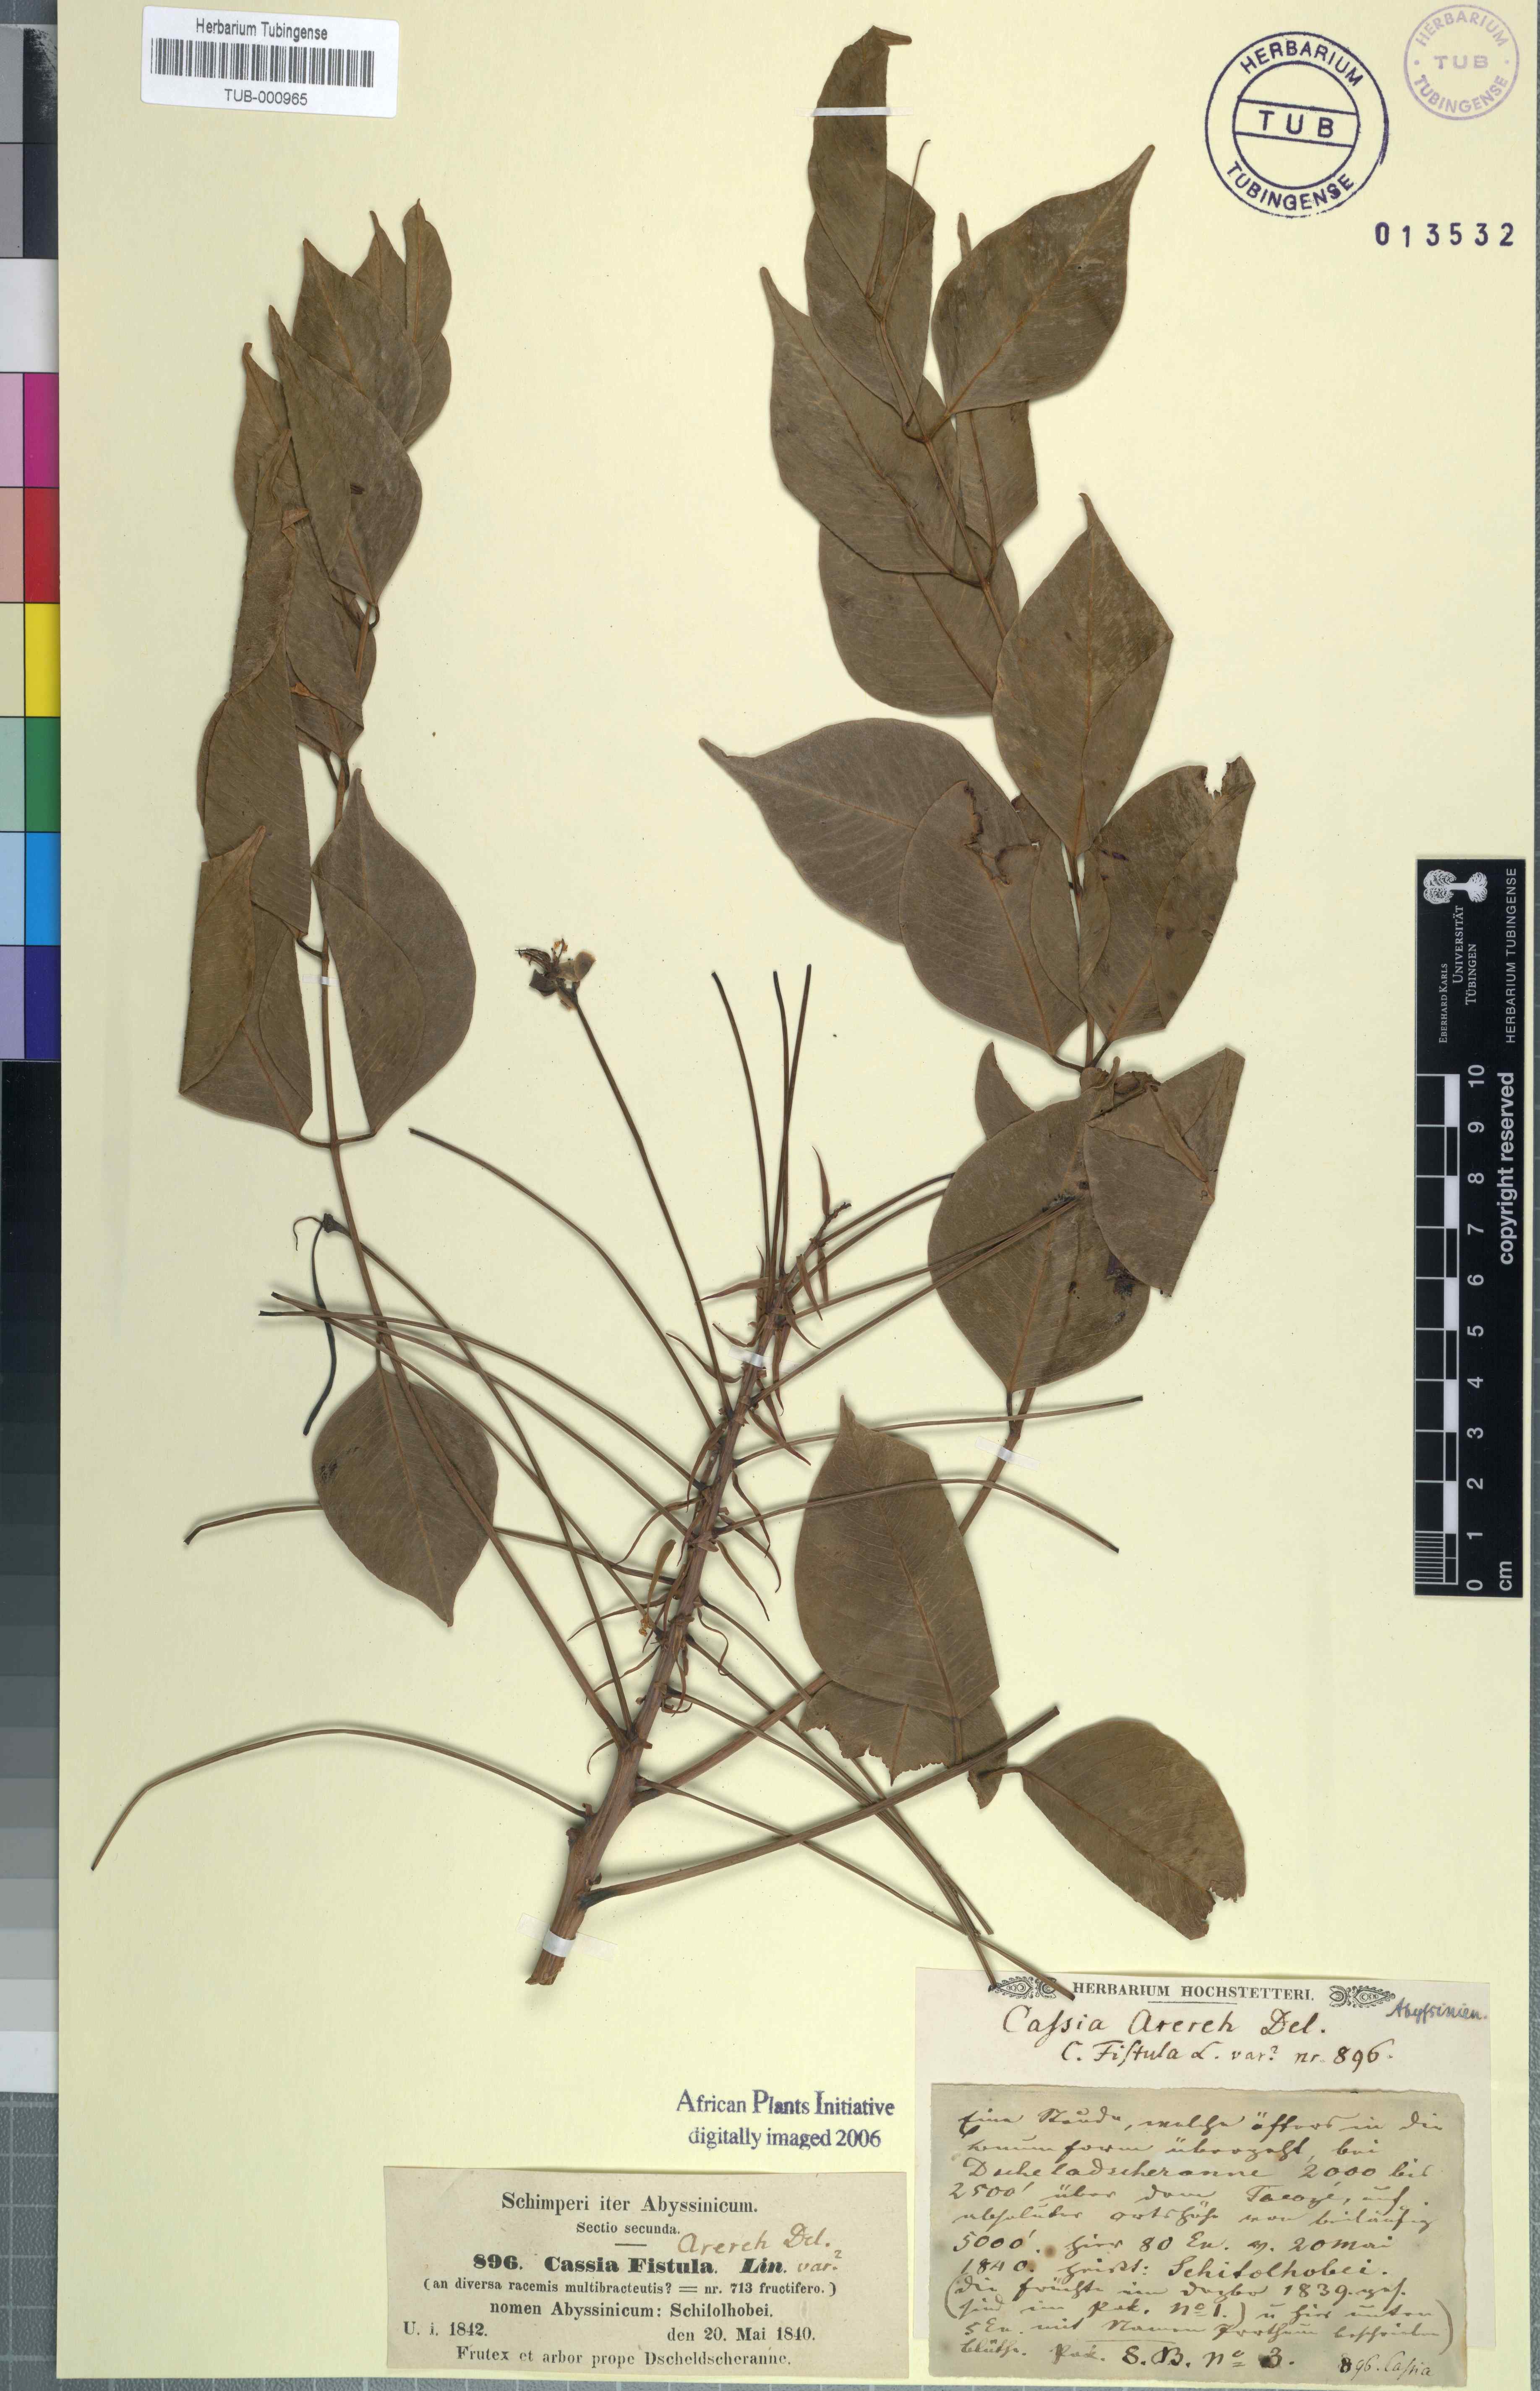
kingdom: Plantae
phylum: Tracheophyta
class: Magnoliopsida
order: Fabales
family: Fabaceae
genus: Cassia
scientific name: Cassia fistula
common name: Golden shower
